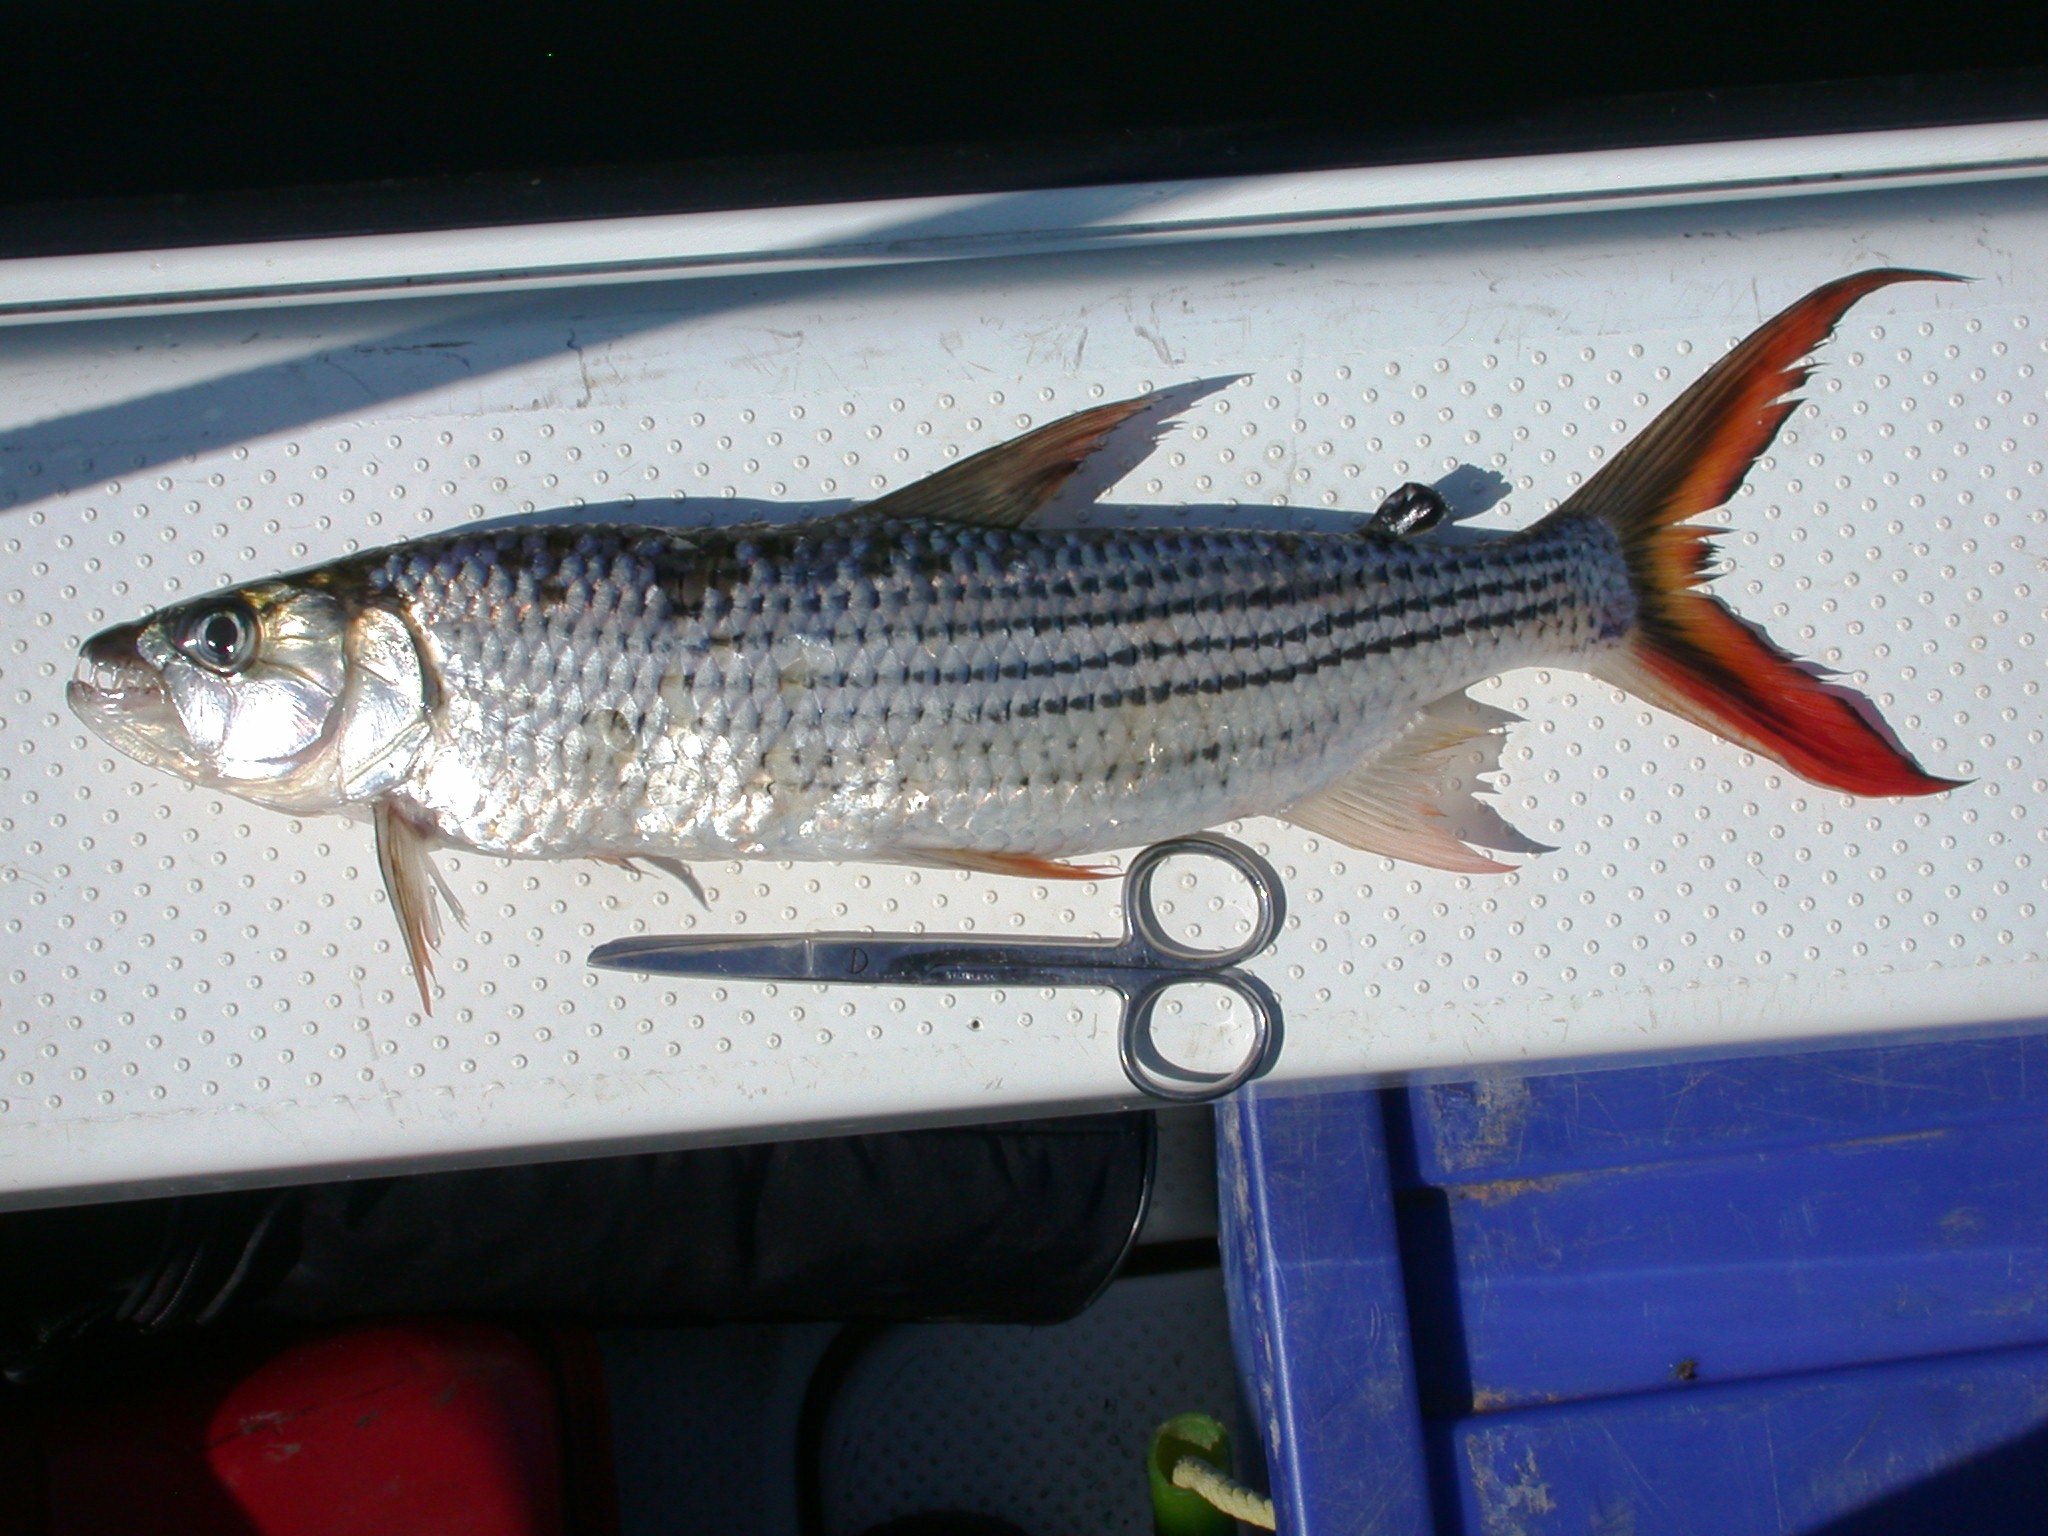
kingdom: Animalia
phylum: Chordata
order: Characiformes
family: Alestidae
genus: Hydrocynus
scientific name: Hydrocynus vittatus
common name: Tigerfish
